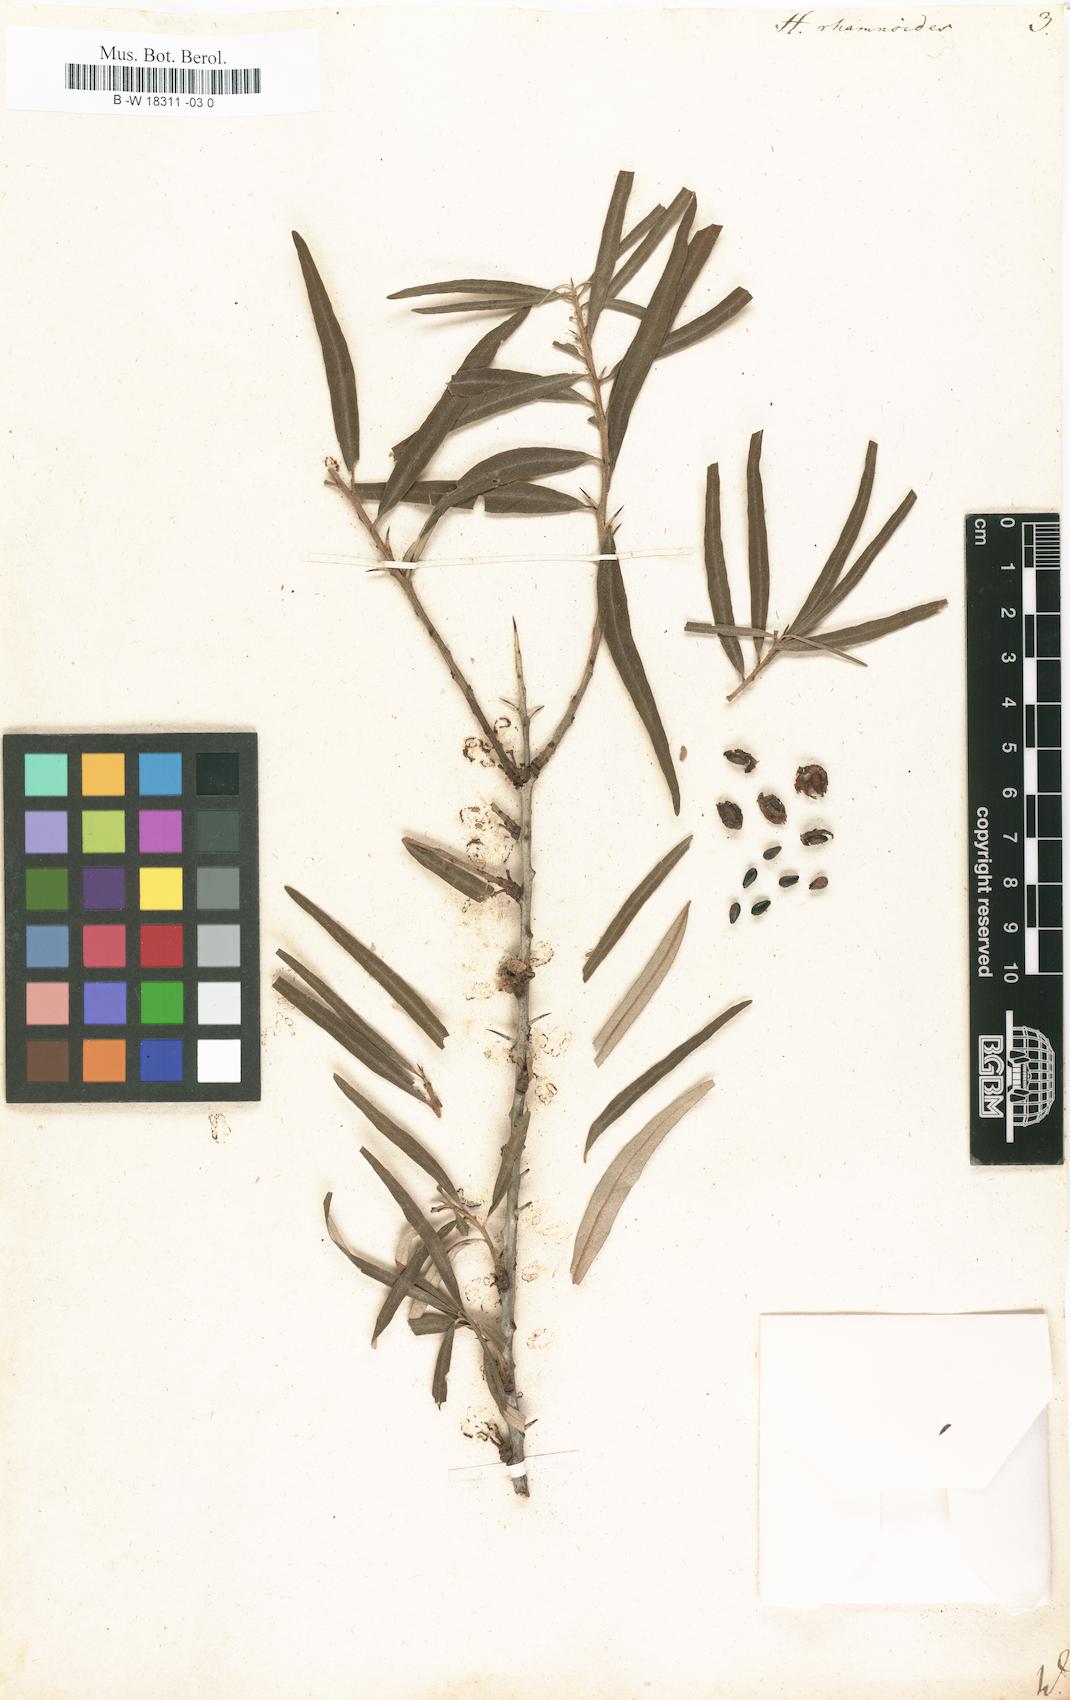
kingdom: Plantae
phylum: Tracheophyta
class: Magnoliopsida
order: Rosales
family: Elaeagnaceae
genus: Hippophae
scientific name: Hippophae rhamnoides
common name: Sea-buckthorn
